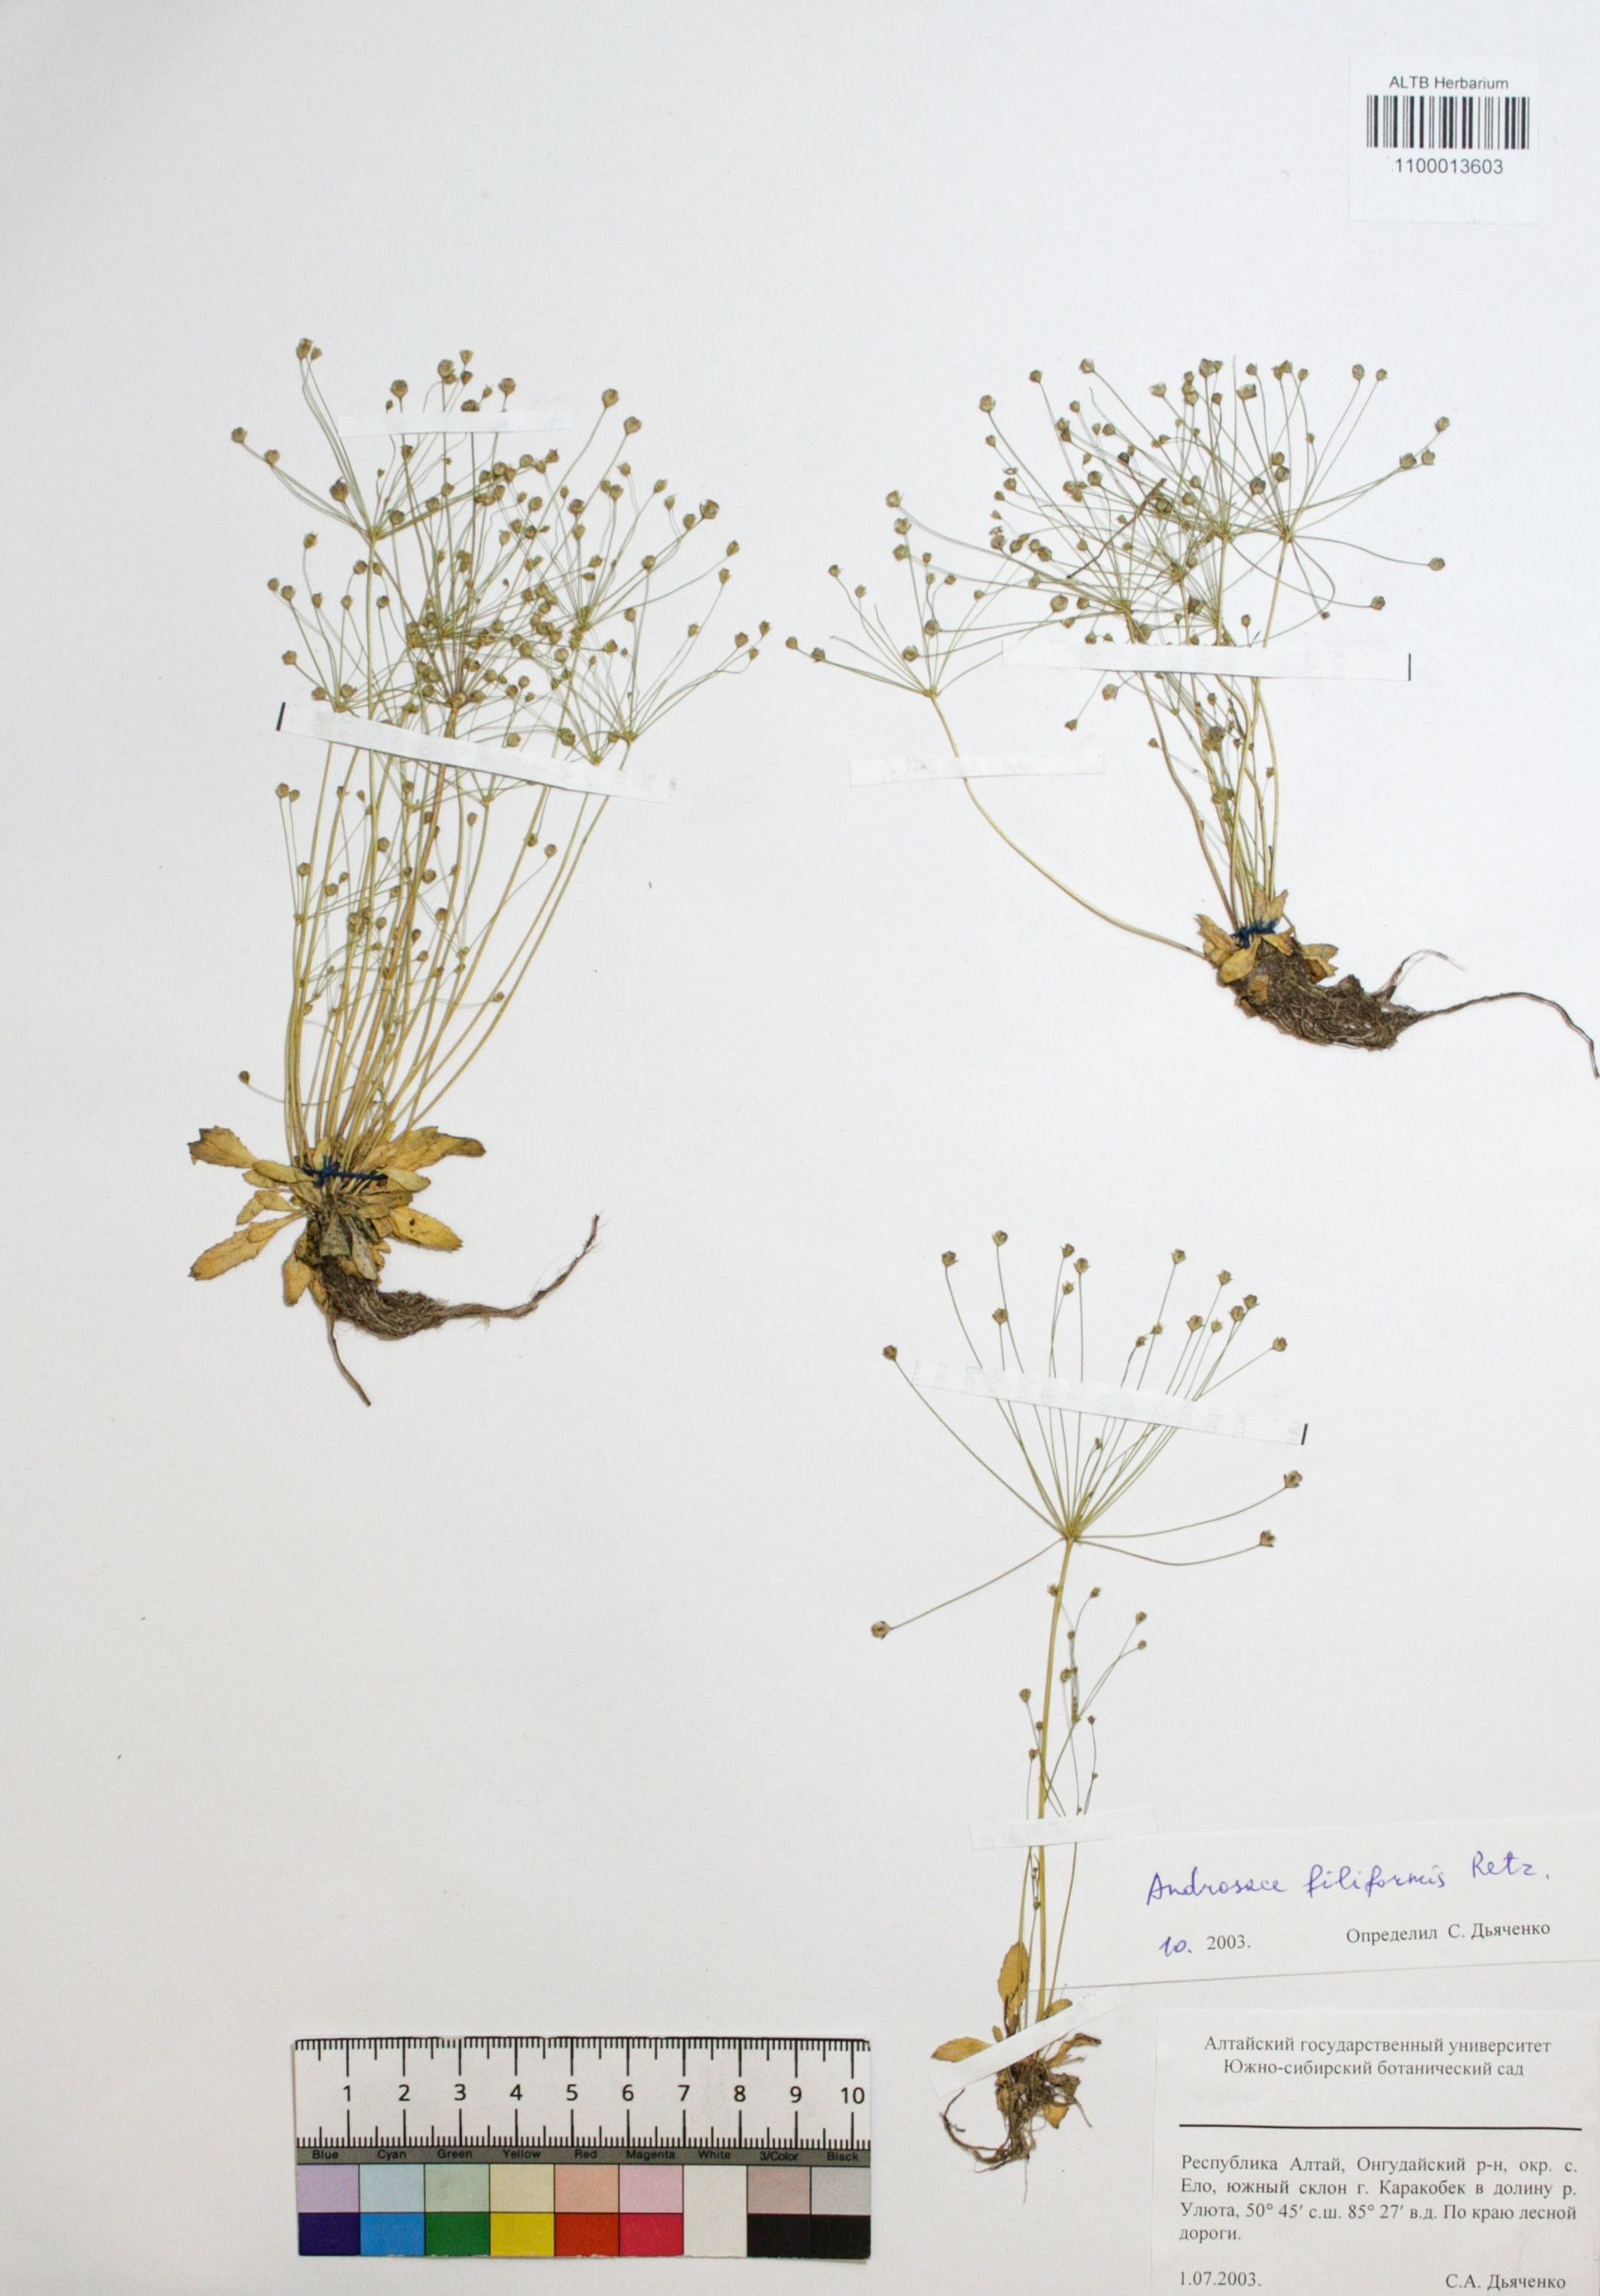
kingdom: Plantae
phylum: Tracheophyta
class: Magnoliopsida
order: Ericales
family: Primulaceae
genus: Androsace
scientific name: Androsace filiformis
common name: Filiform rock jasmine
